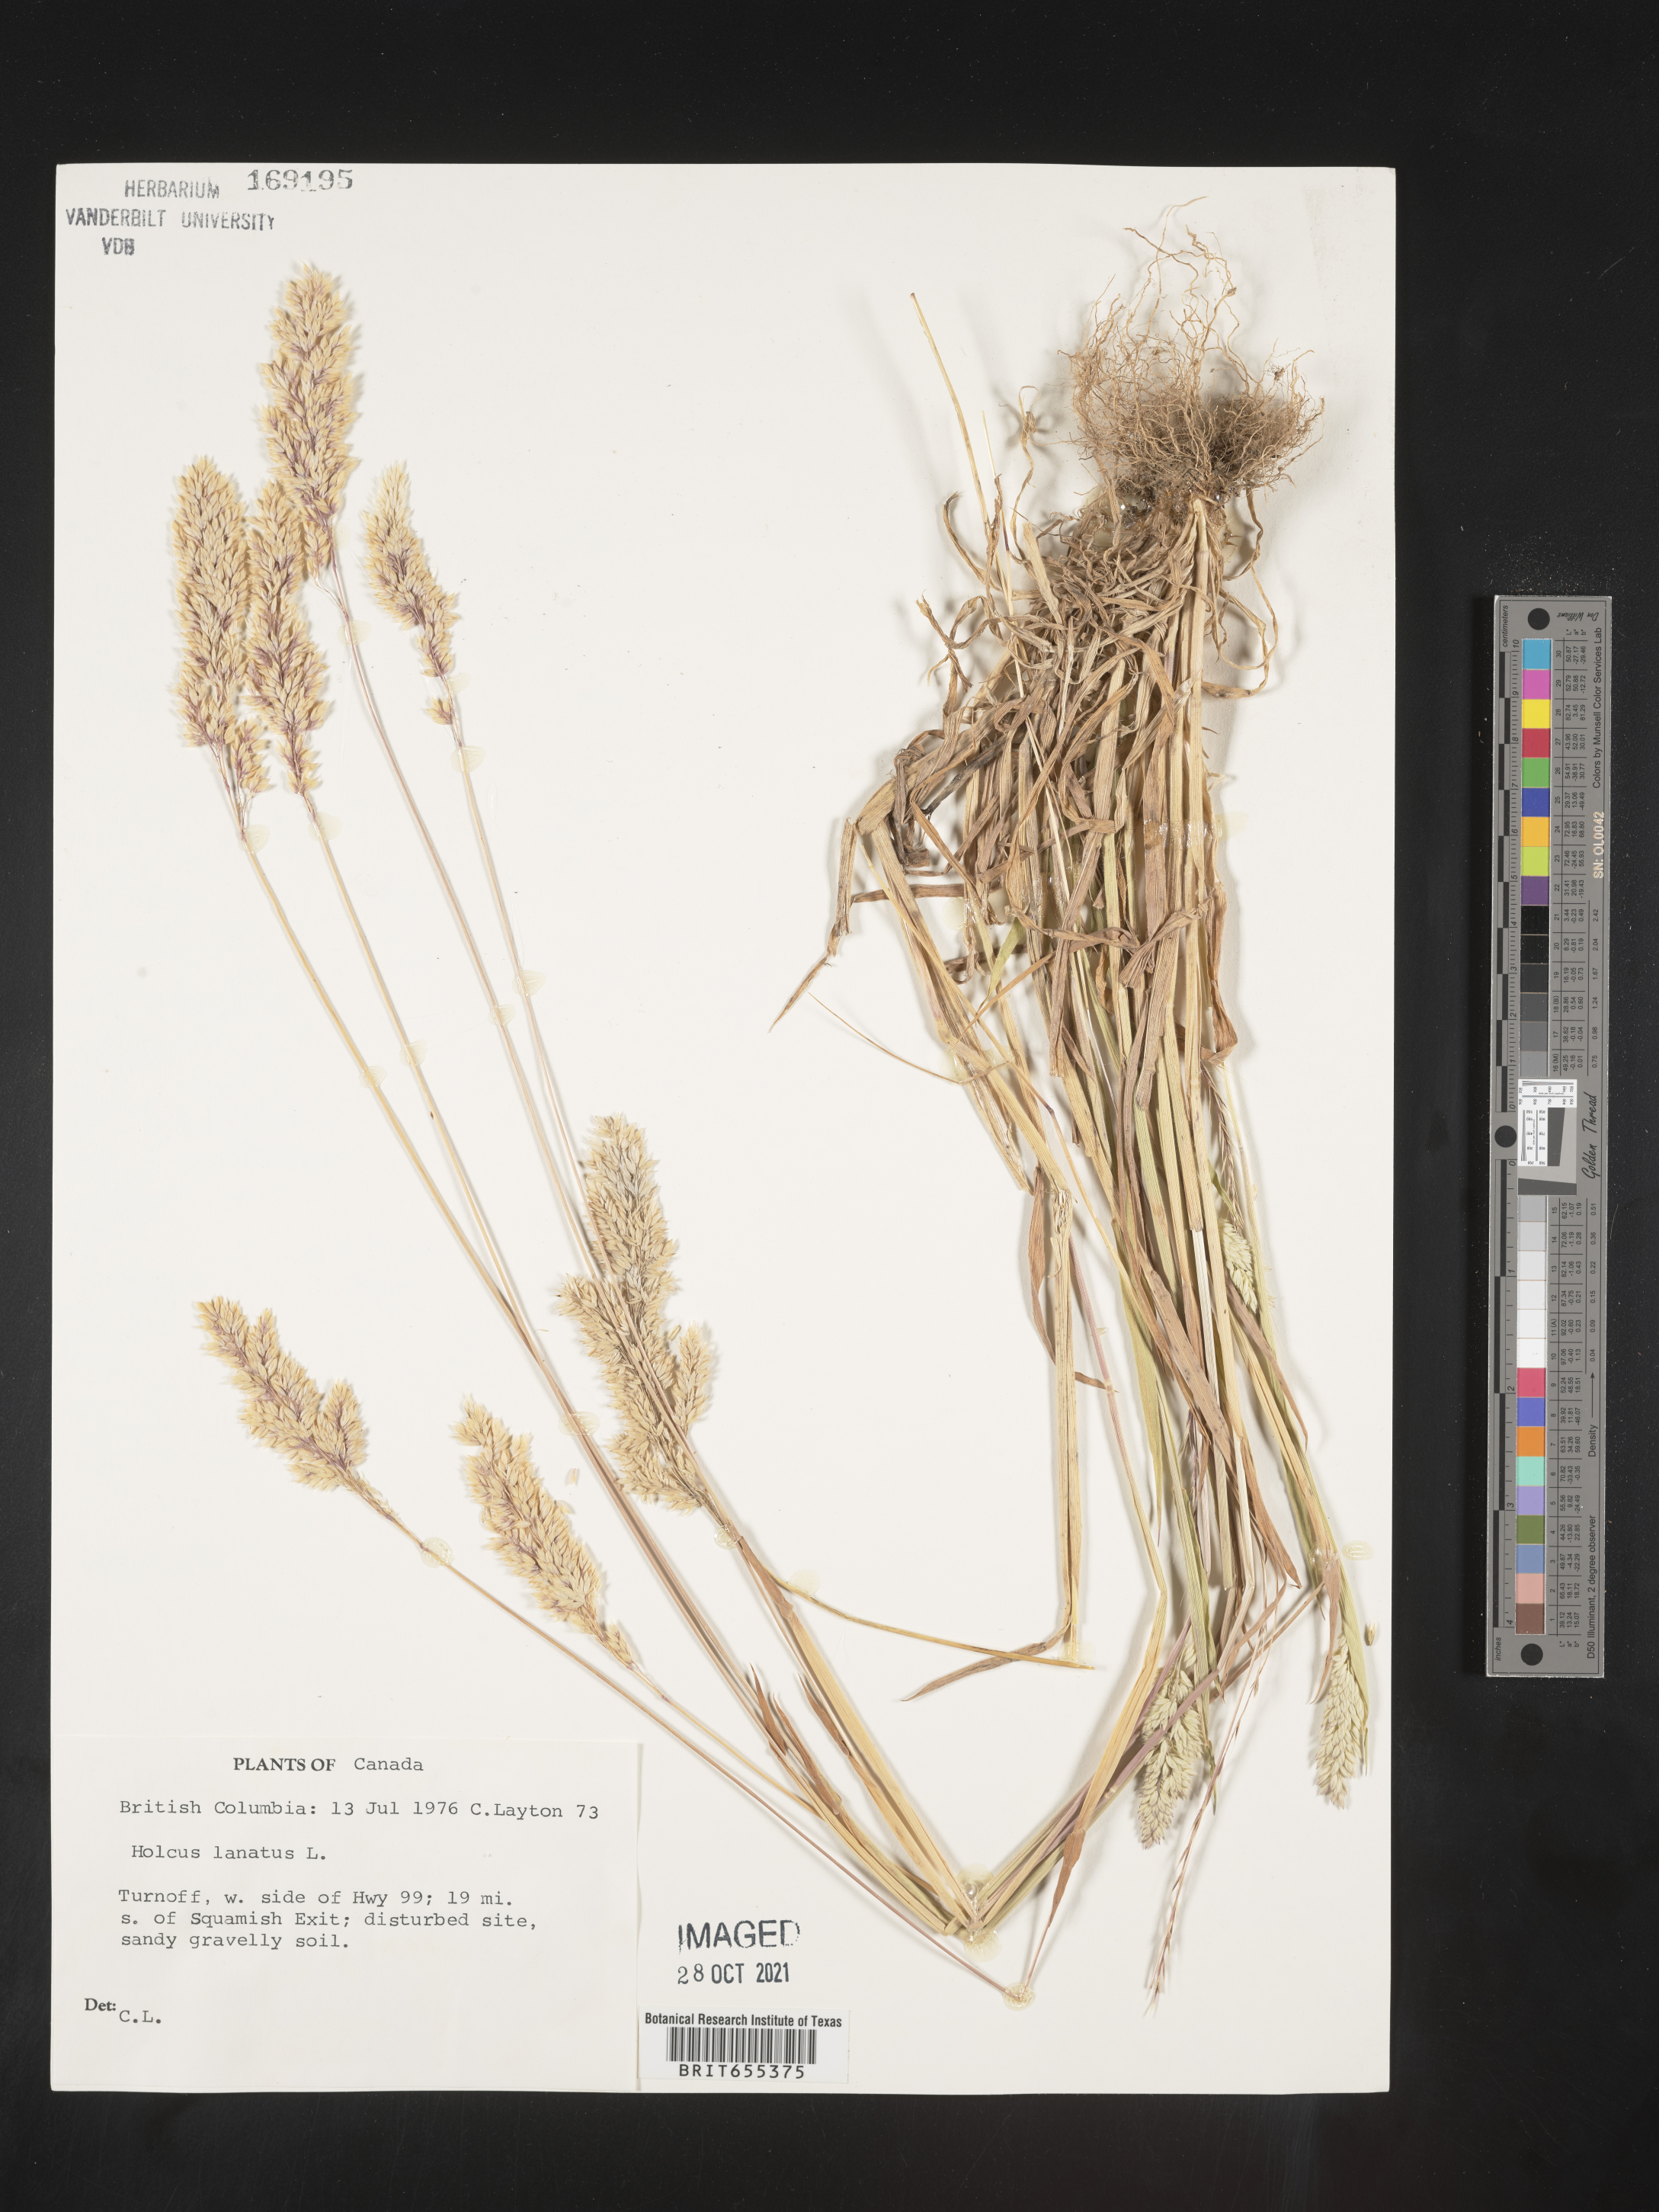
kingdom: Plantae
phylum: Tracheophyta
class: Liliopsida
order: Poales
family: Poaceae
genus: Holcus
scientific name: Holcus
